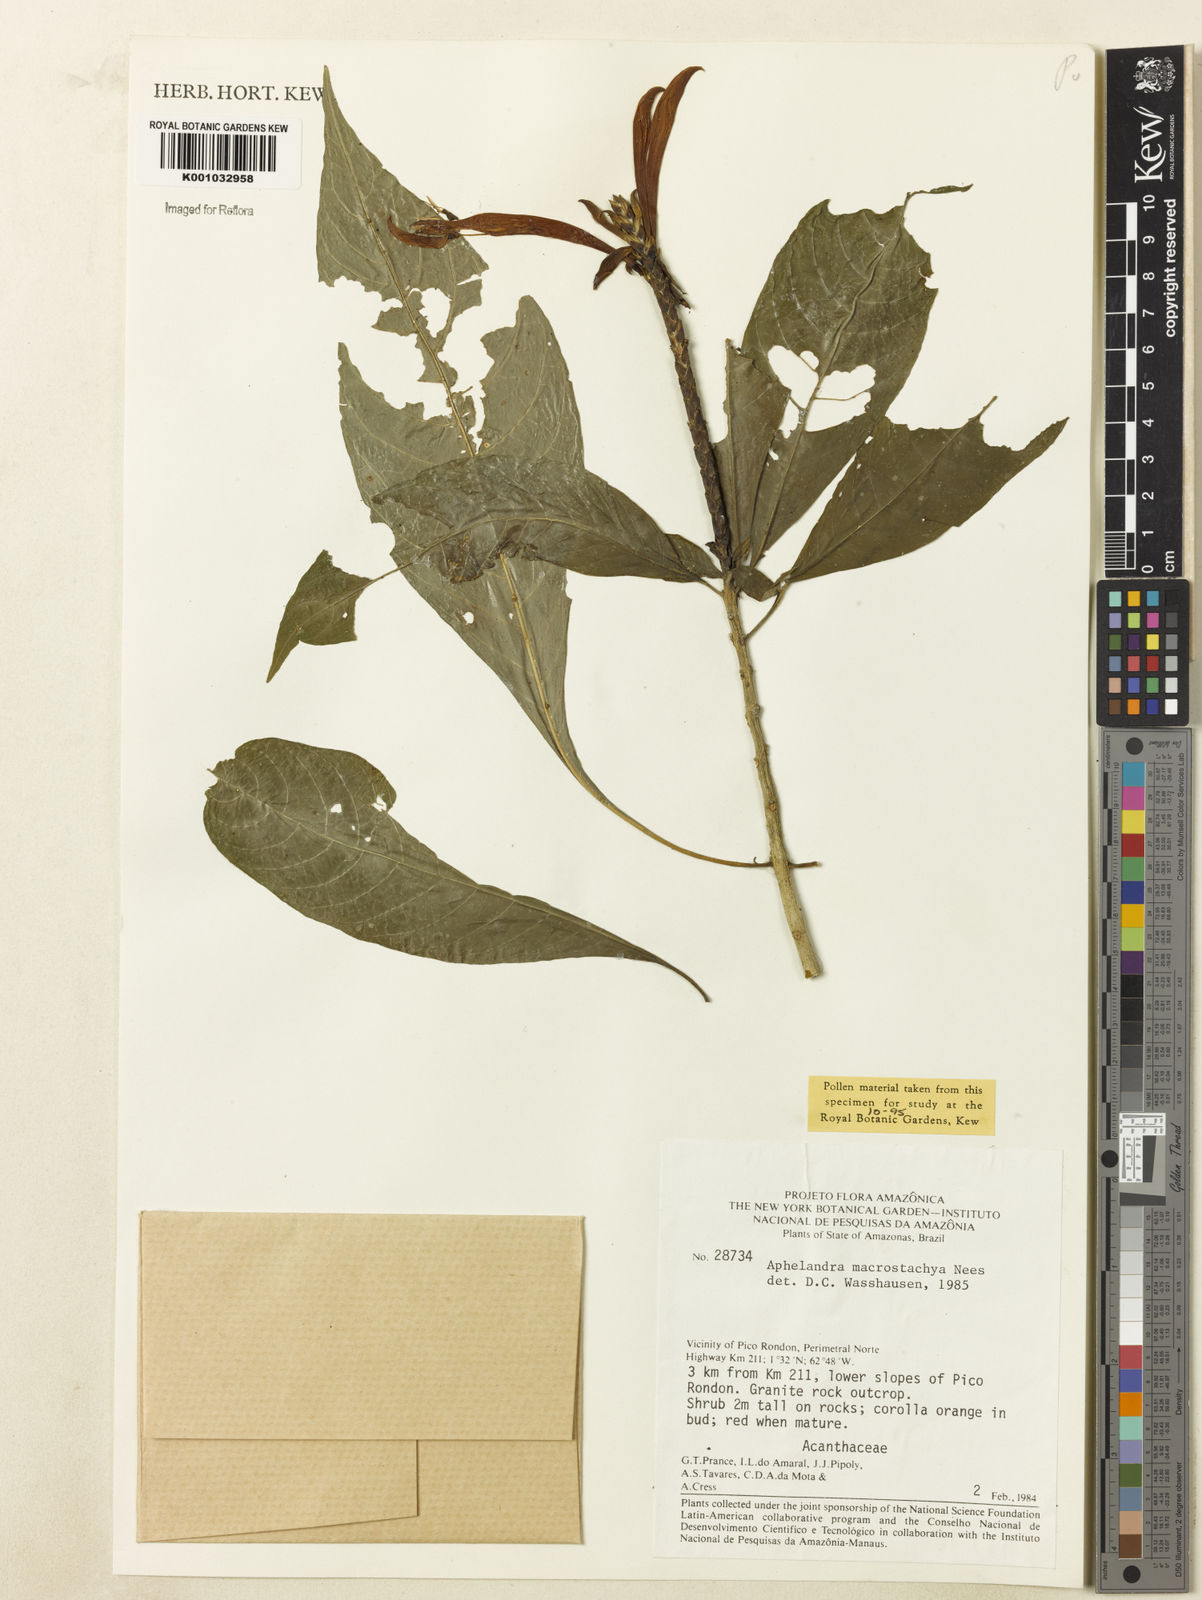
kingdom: Plantae
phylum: Tracheophyta
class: Magnoliopsida
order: Lamiales
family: Acanthaceae
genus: Aphelandra
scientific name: Aphelandra macrostachya
